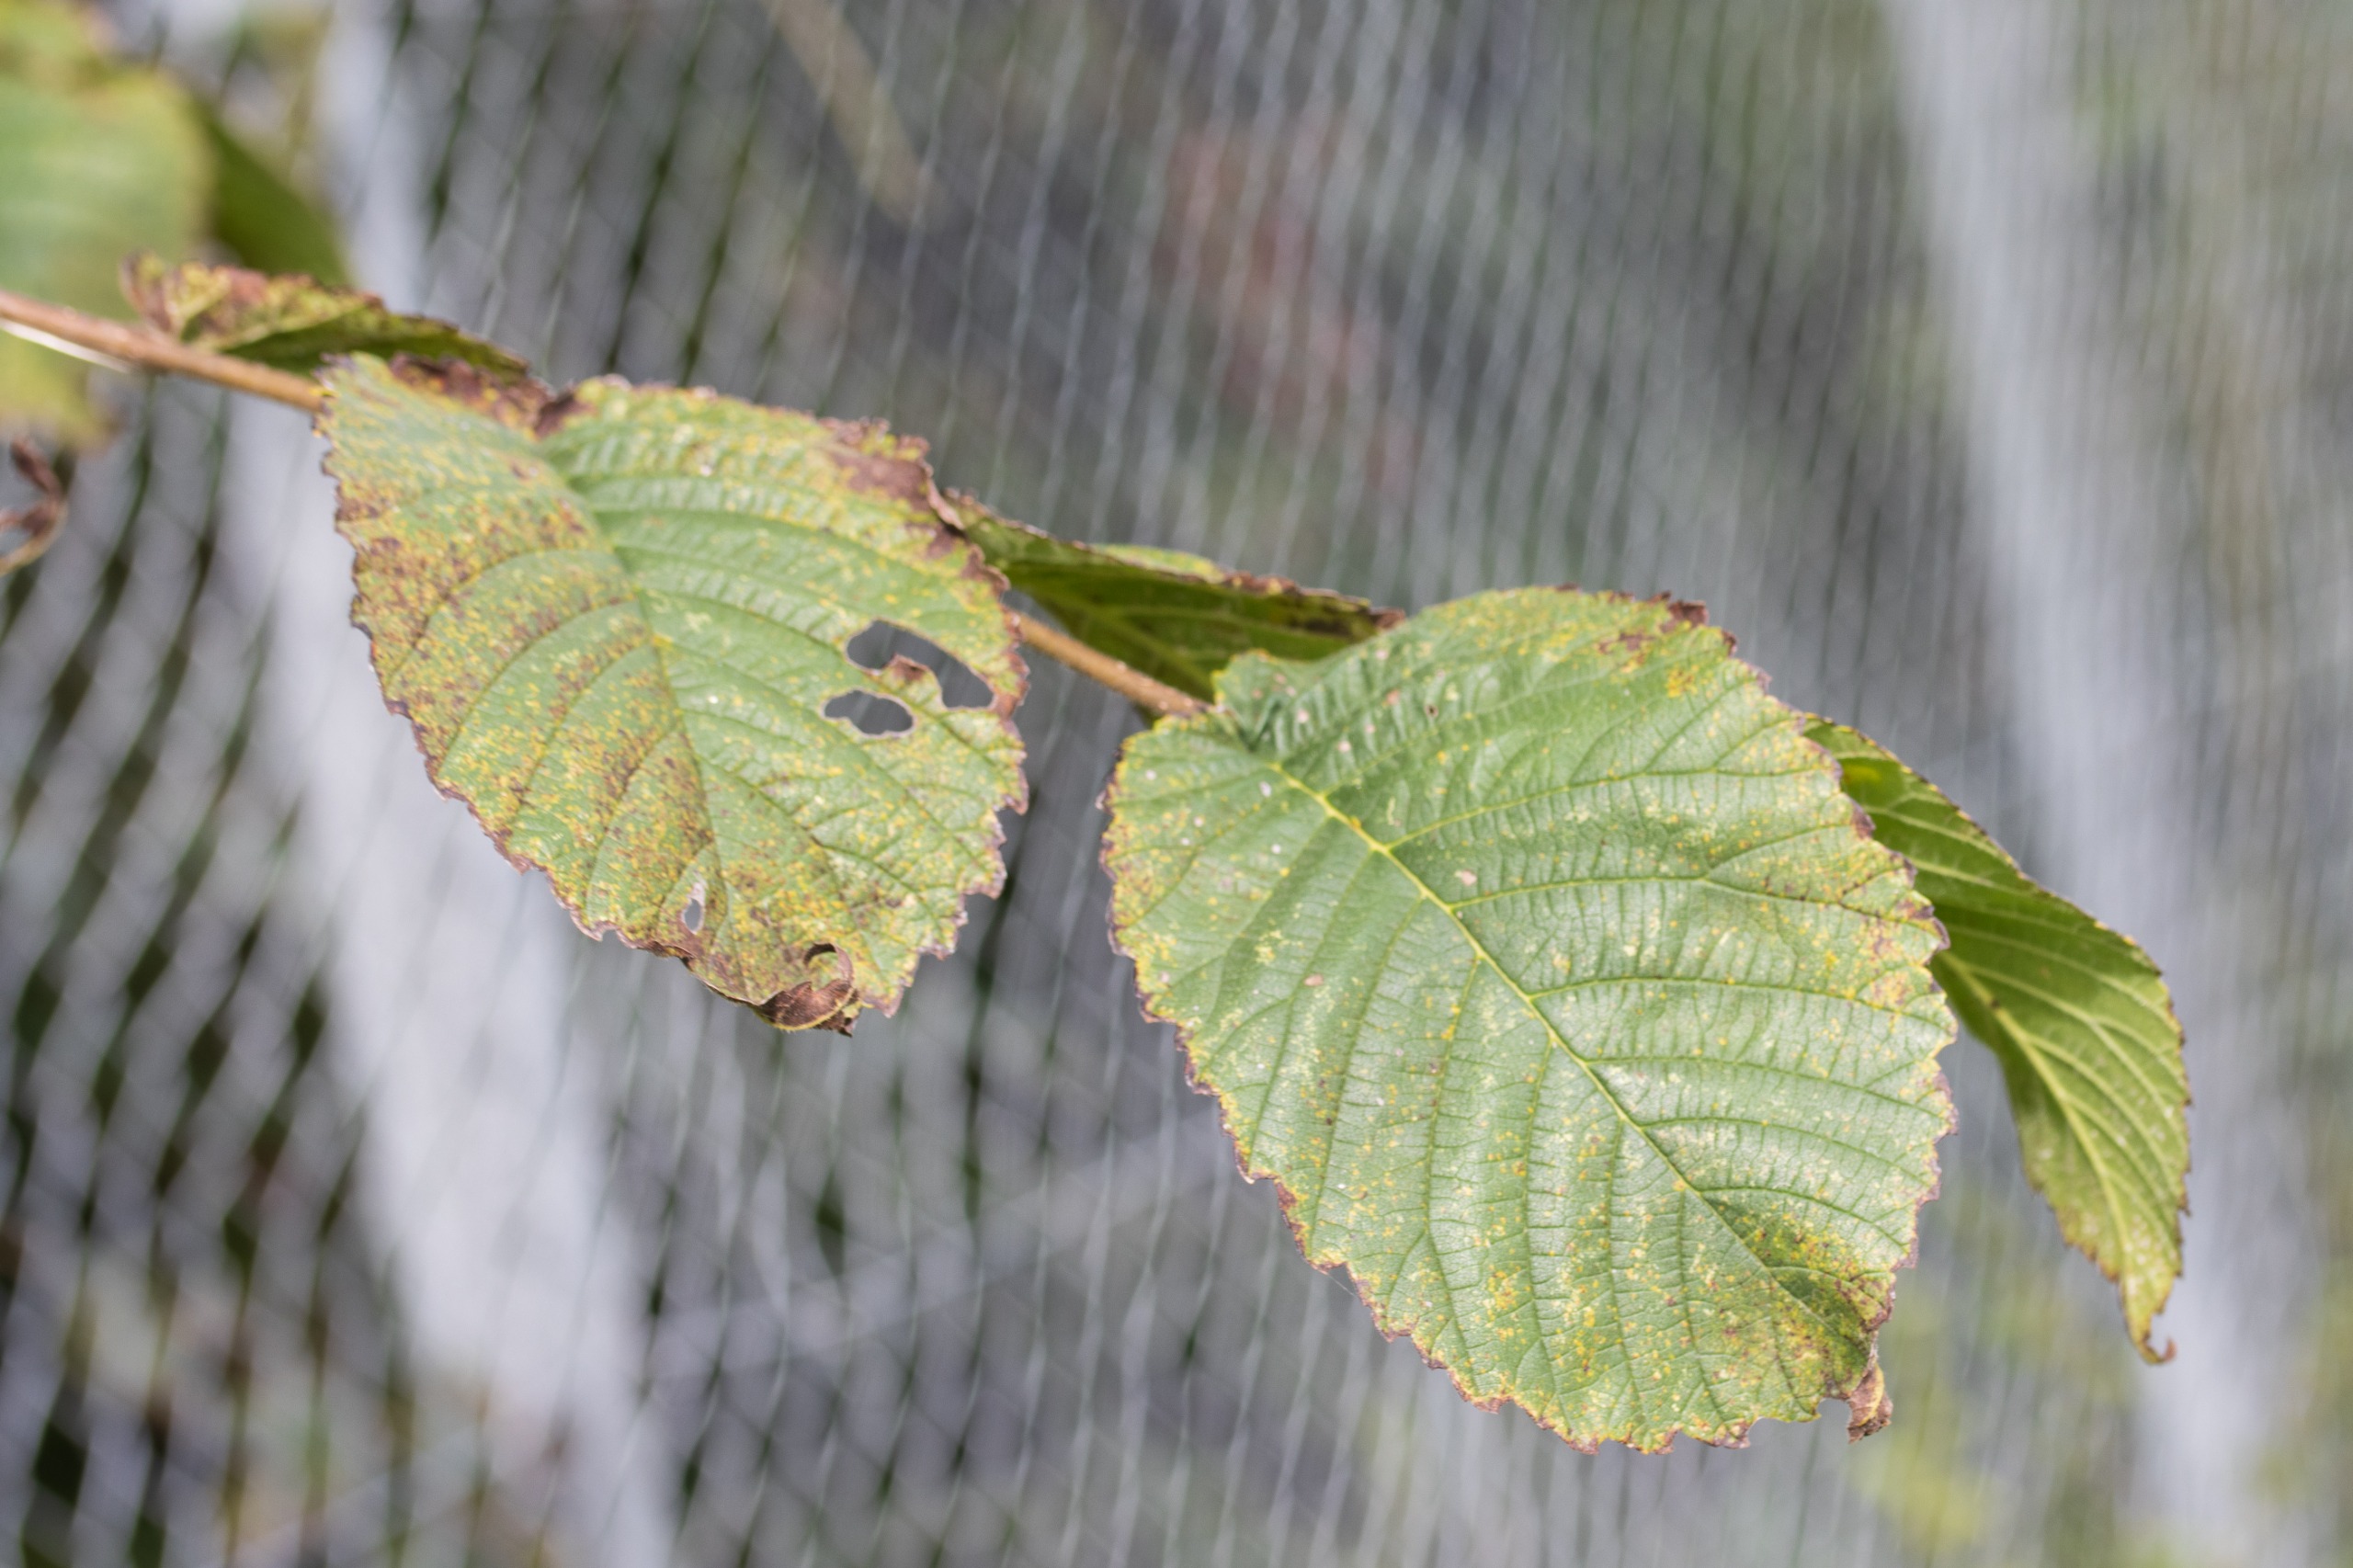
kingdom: Plantae
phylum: Tracheophyta
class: Magnoliopsida
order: Rosales
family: Ulmaceae
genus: Ulmus
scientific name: Ulmus glabra
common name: Skov-elm/storbladet elm
